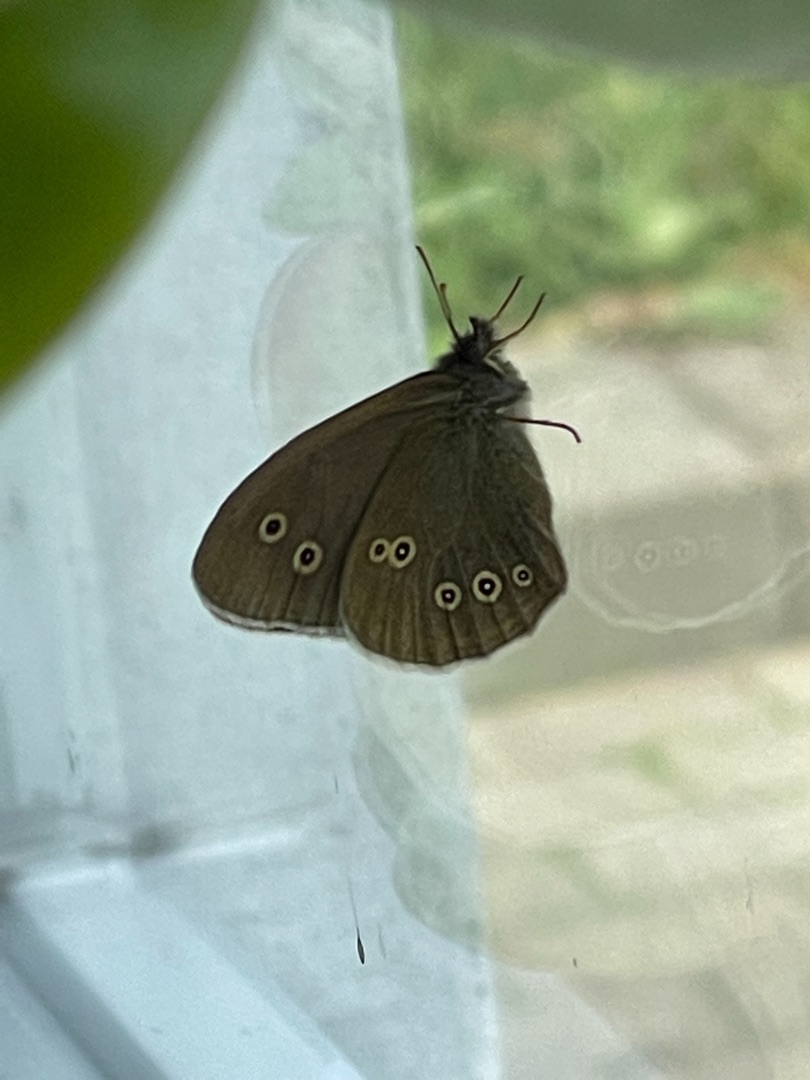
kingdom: Animalia
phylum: Arthropoda
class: Insecta
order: Lepidoptera
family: Nymphalidae
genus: Aphantopus
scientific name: Aphantopus hyperantus
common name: Engrandøje
